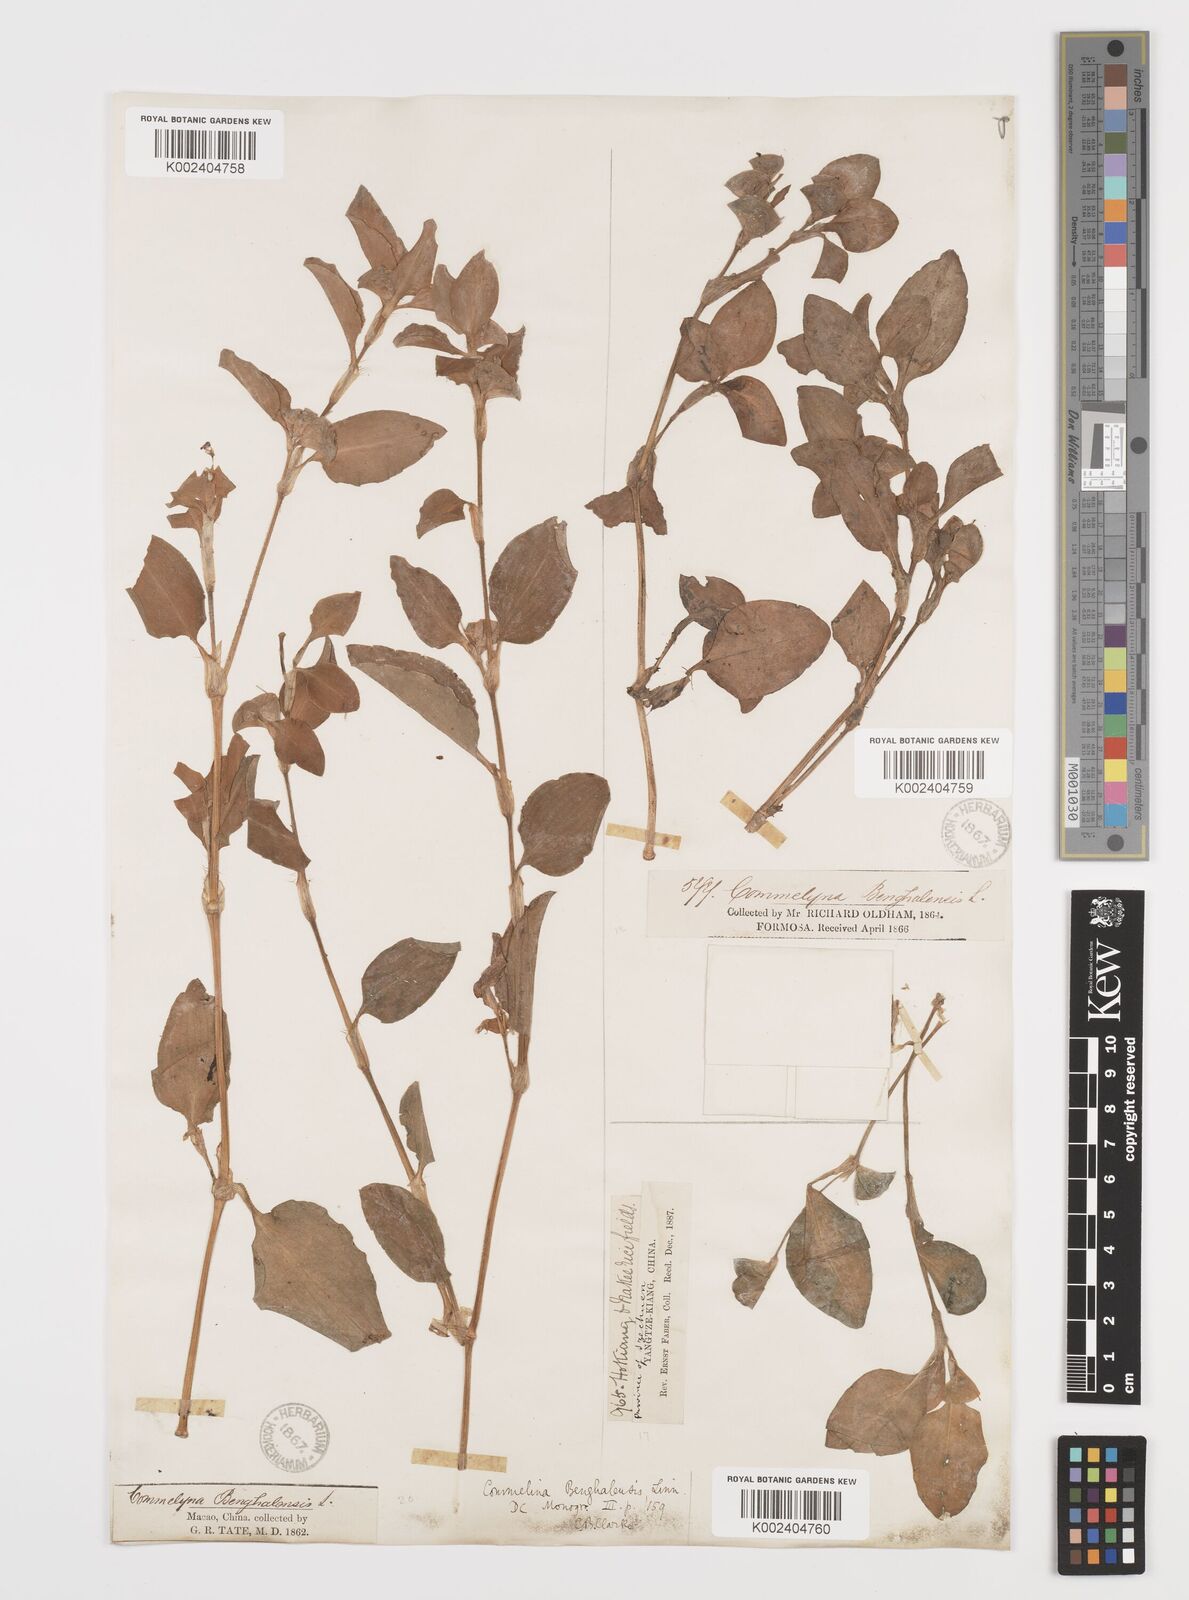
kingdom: Plantae
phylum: Tracheophyta
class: Liliopsida
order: Commelinales
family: Commelinaceae
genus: Commelina
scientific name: Commelina benghalensis
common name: Jio
